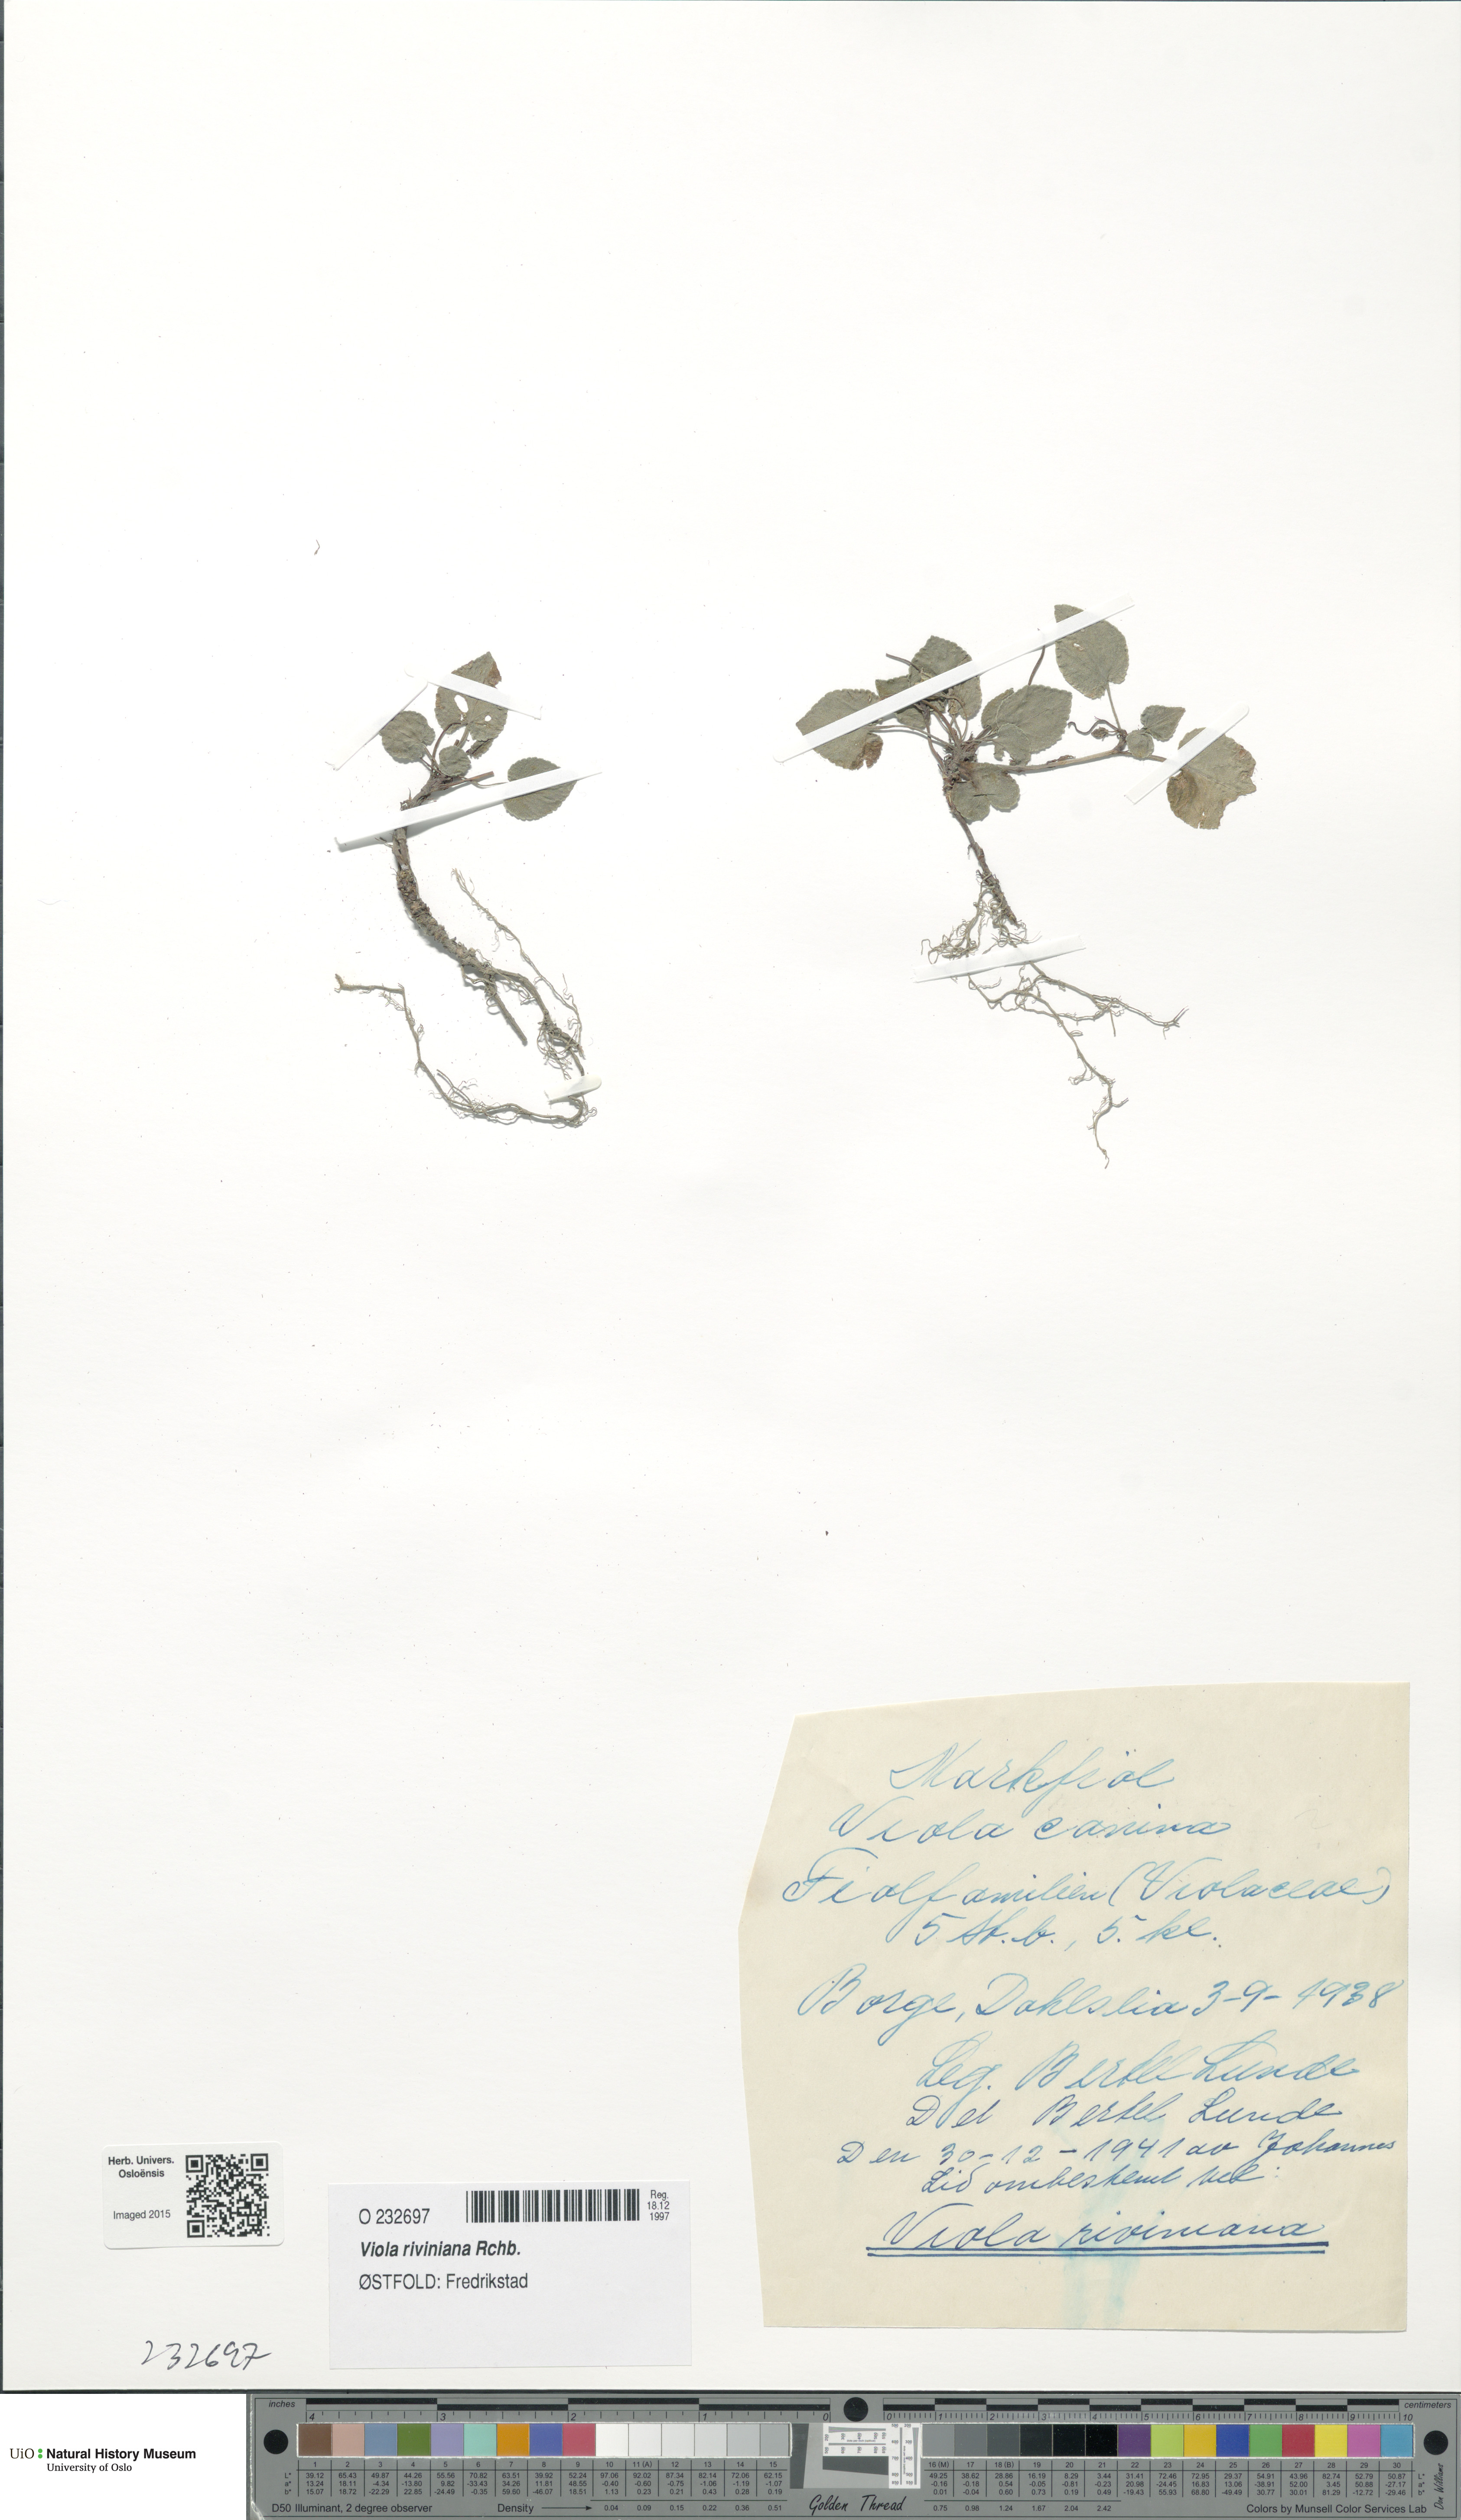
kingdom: Plantae
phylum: Tracheophyta
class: Magnoliopsida
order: Malpighiales
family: Violaceae
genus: Viola
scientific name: Viola riviniana
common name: Common dog-violet
